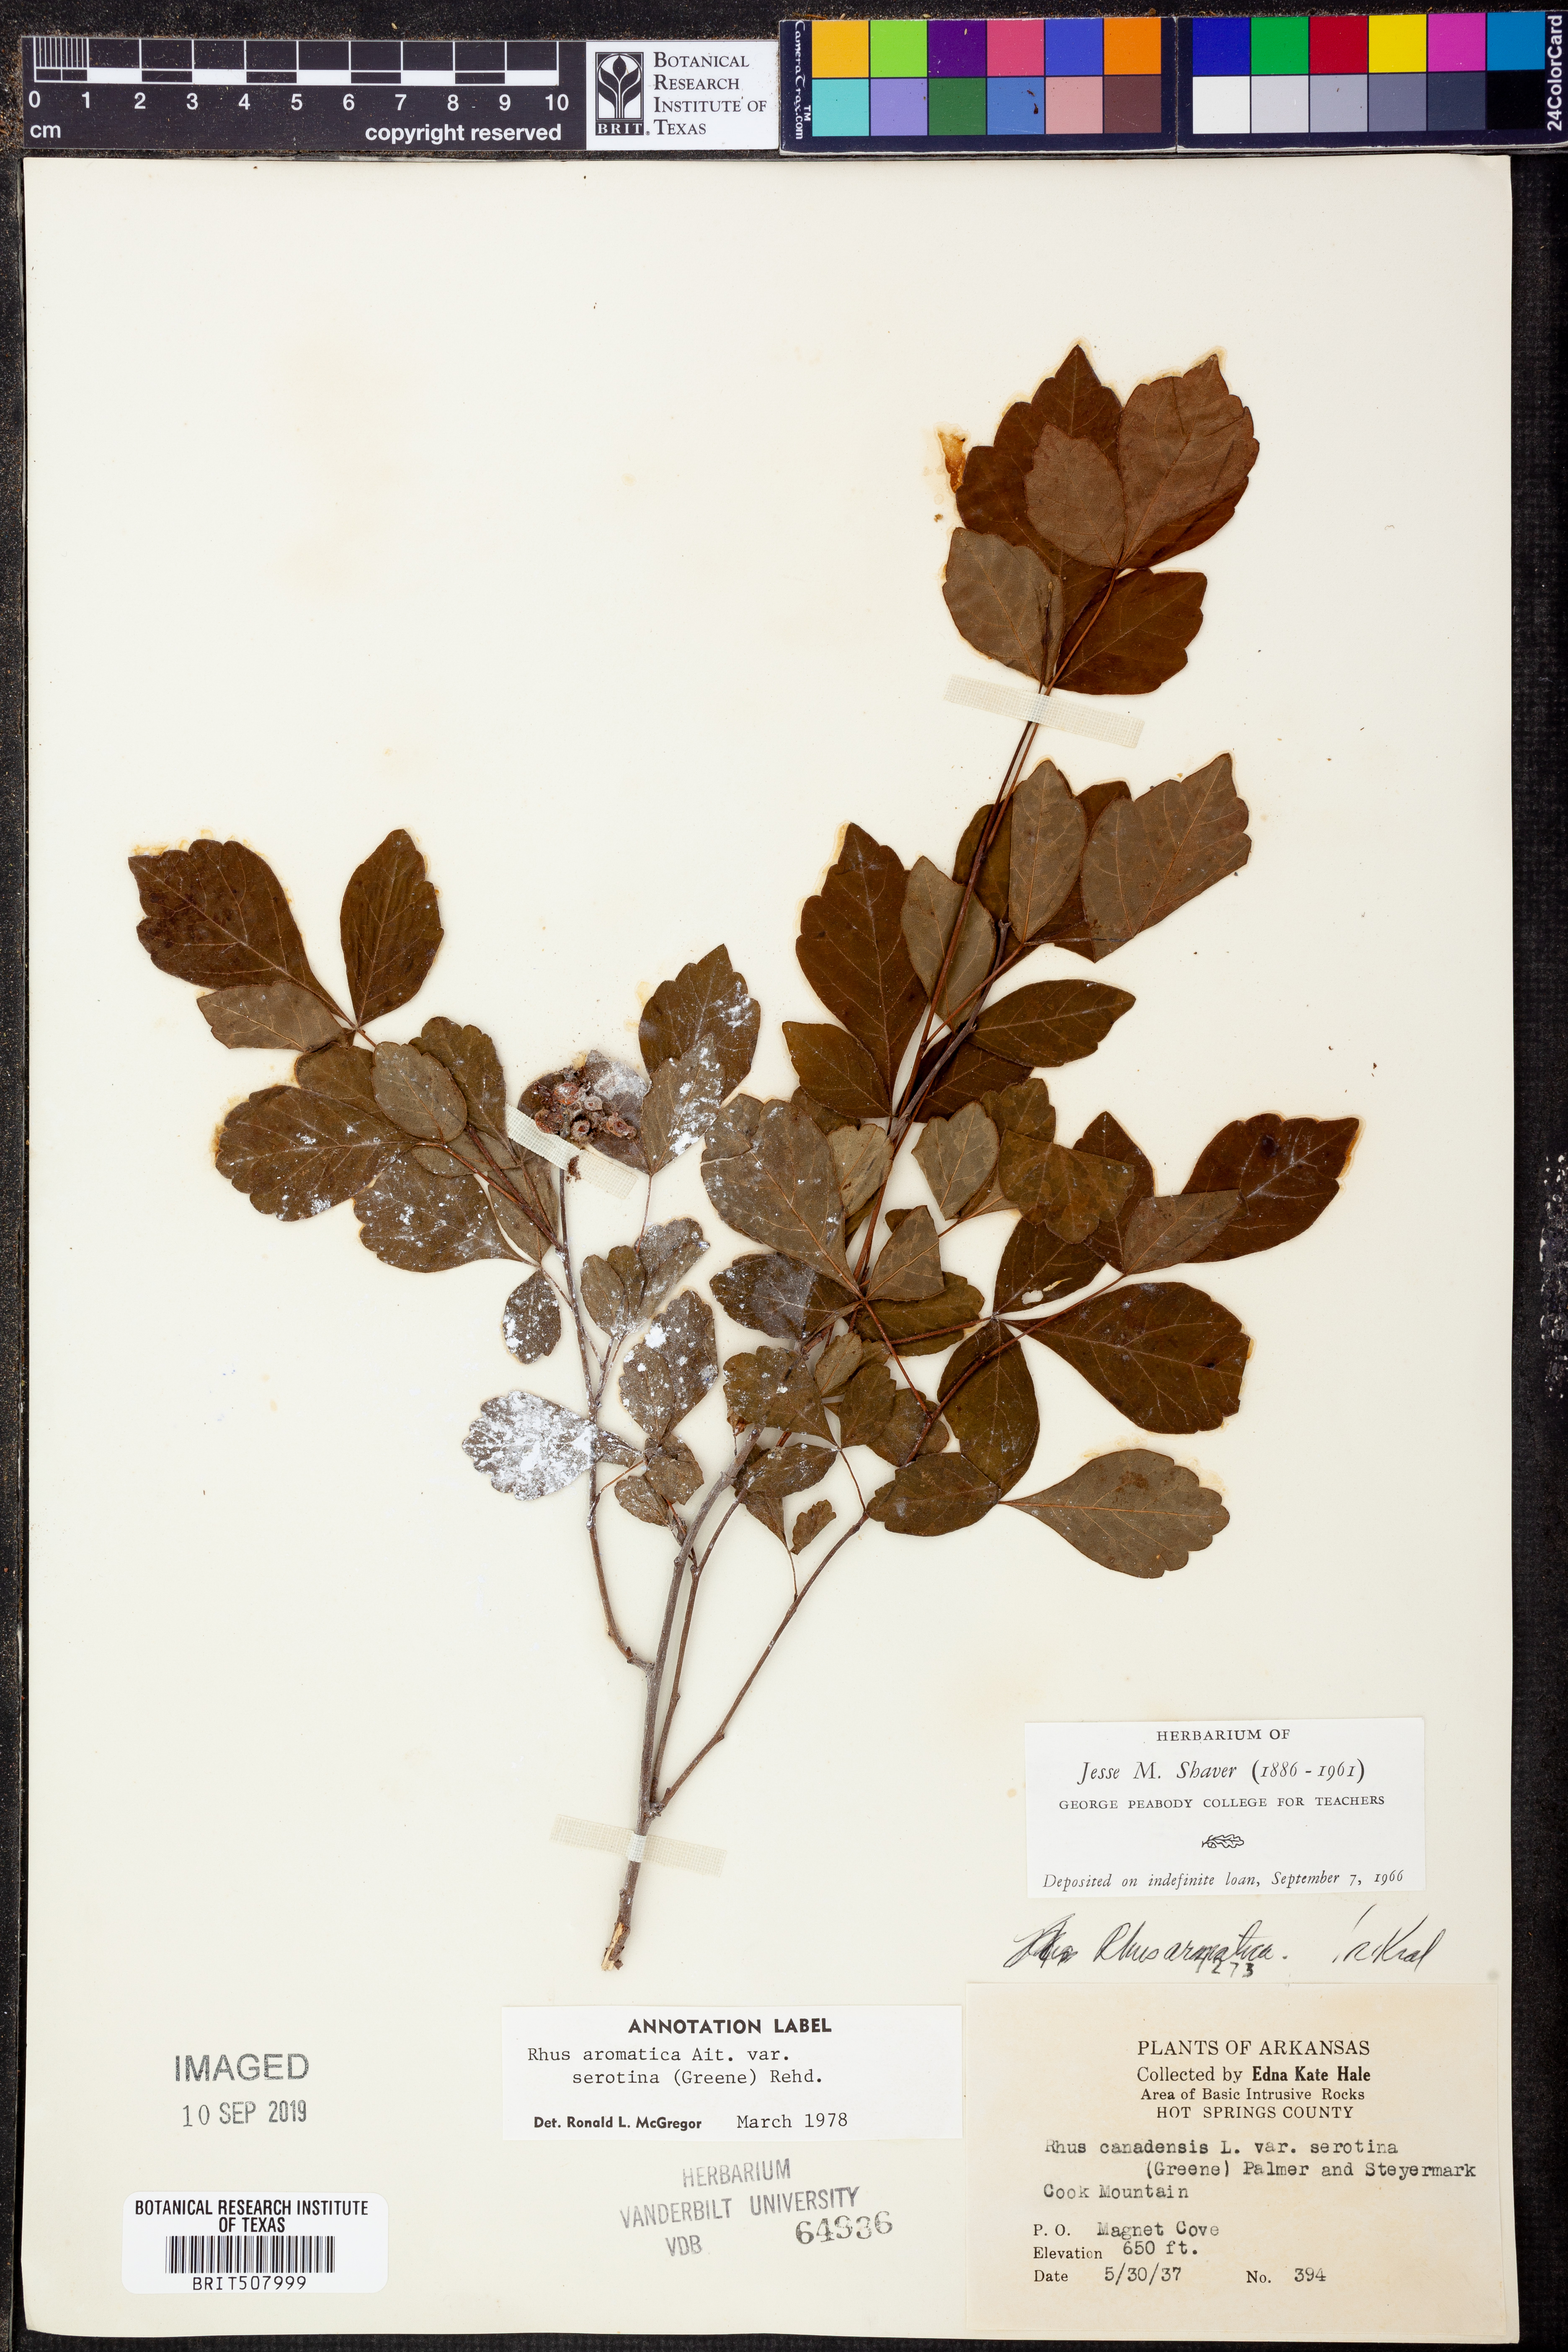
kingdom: Plantae
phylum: Tracheophyta
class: Magnoliopsida
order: Sapindales
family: Anacardiaceae
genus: Rhus
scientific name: Rhus aromatica
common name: Aromatic sumac
